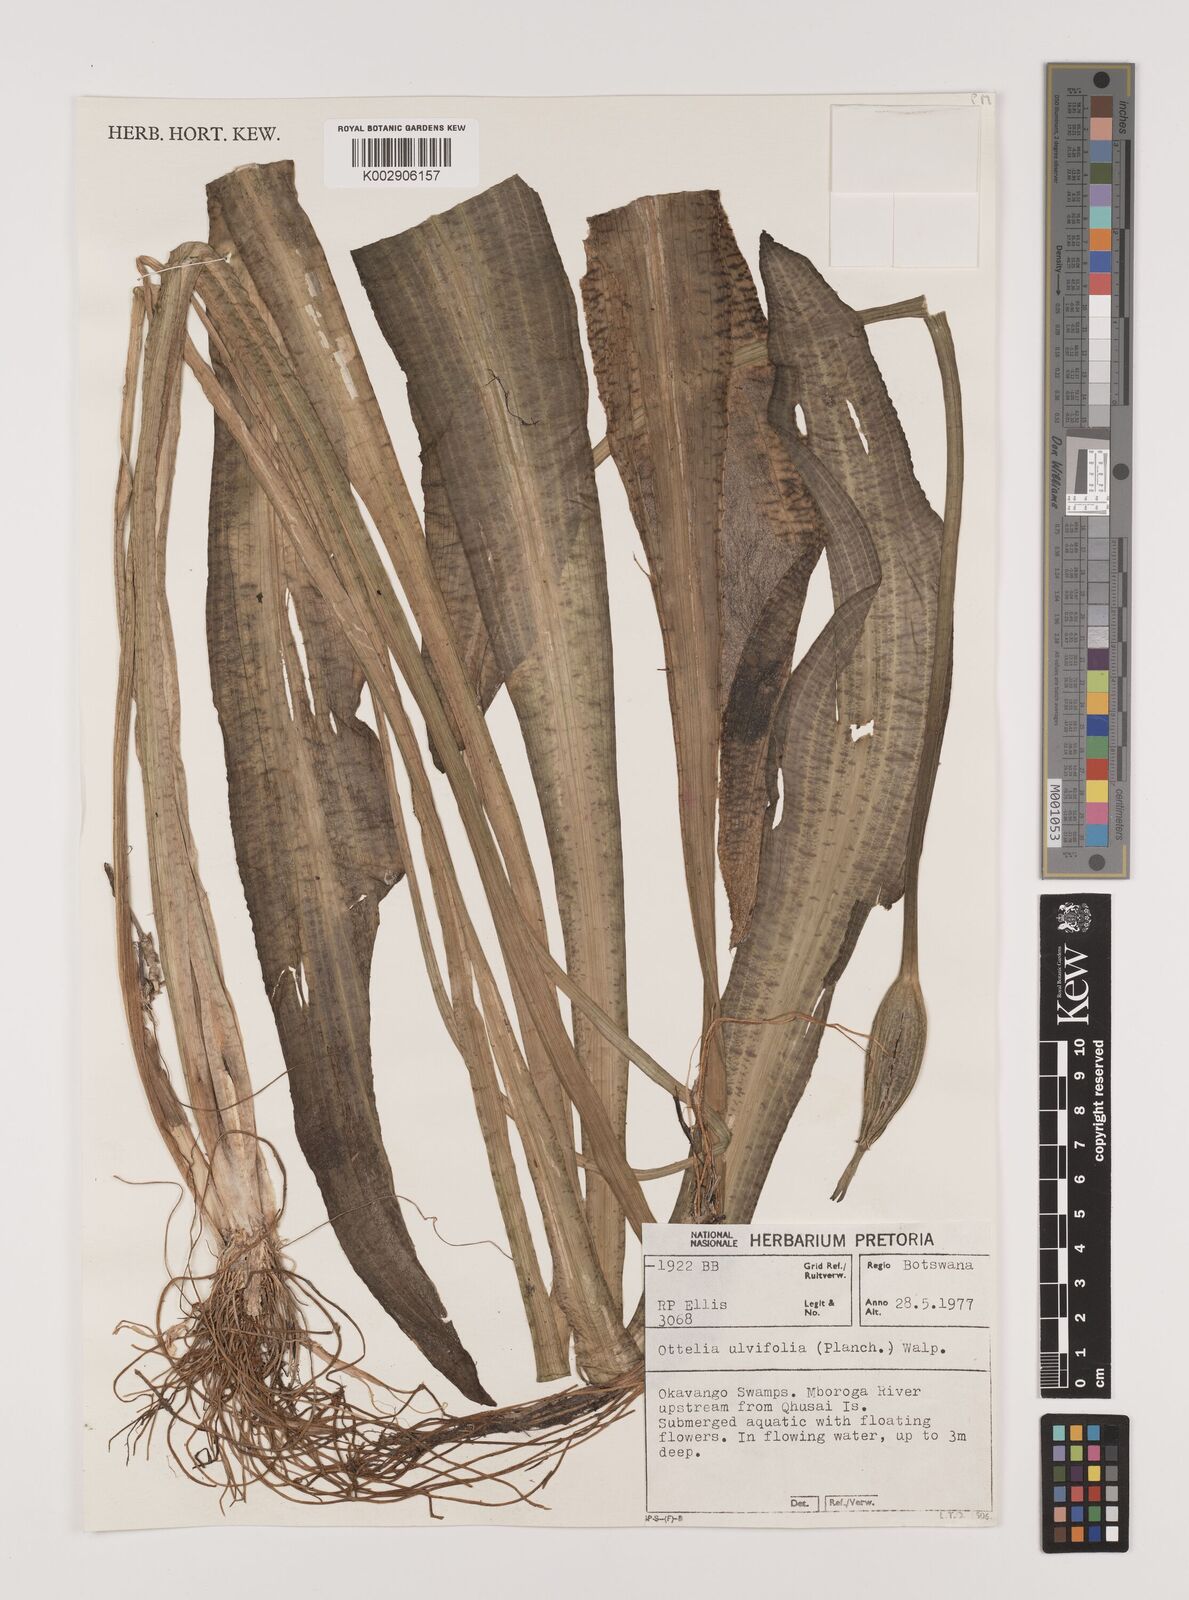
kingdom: Plantae
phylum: Tracheophyta
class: Liliopsida
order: Alismatales
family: Hydrocharitaceae
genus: Ottelia
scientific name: Ottelia ulvifolia
